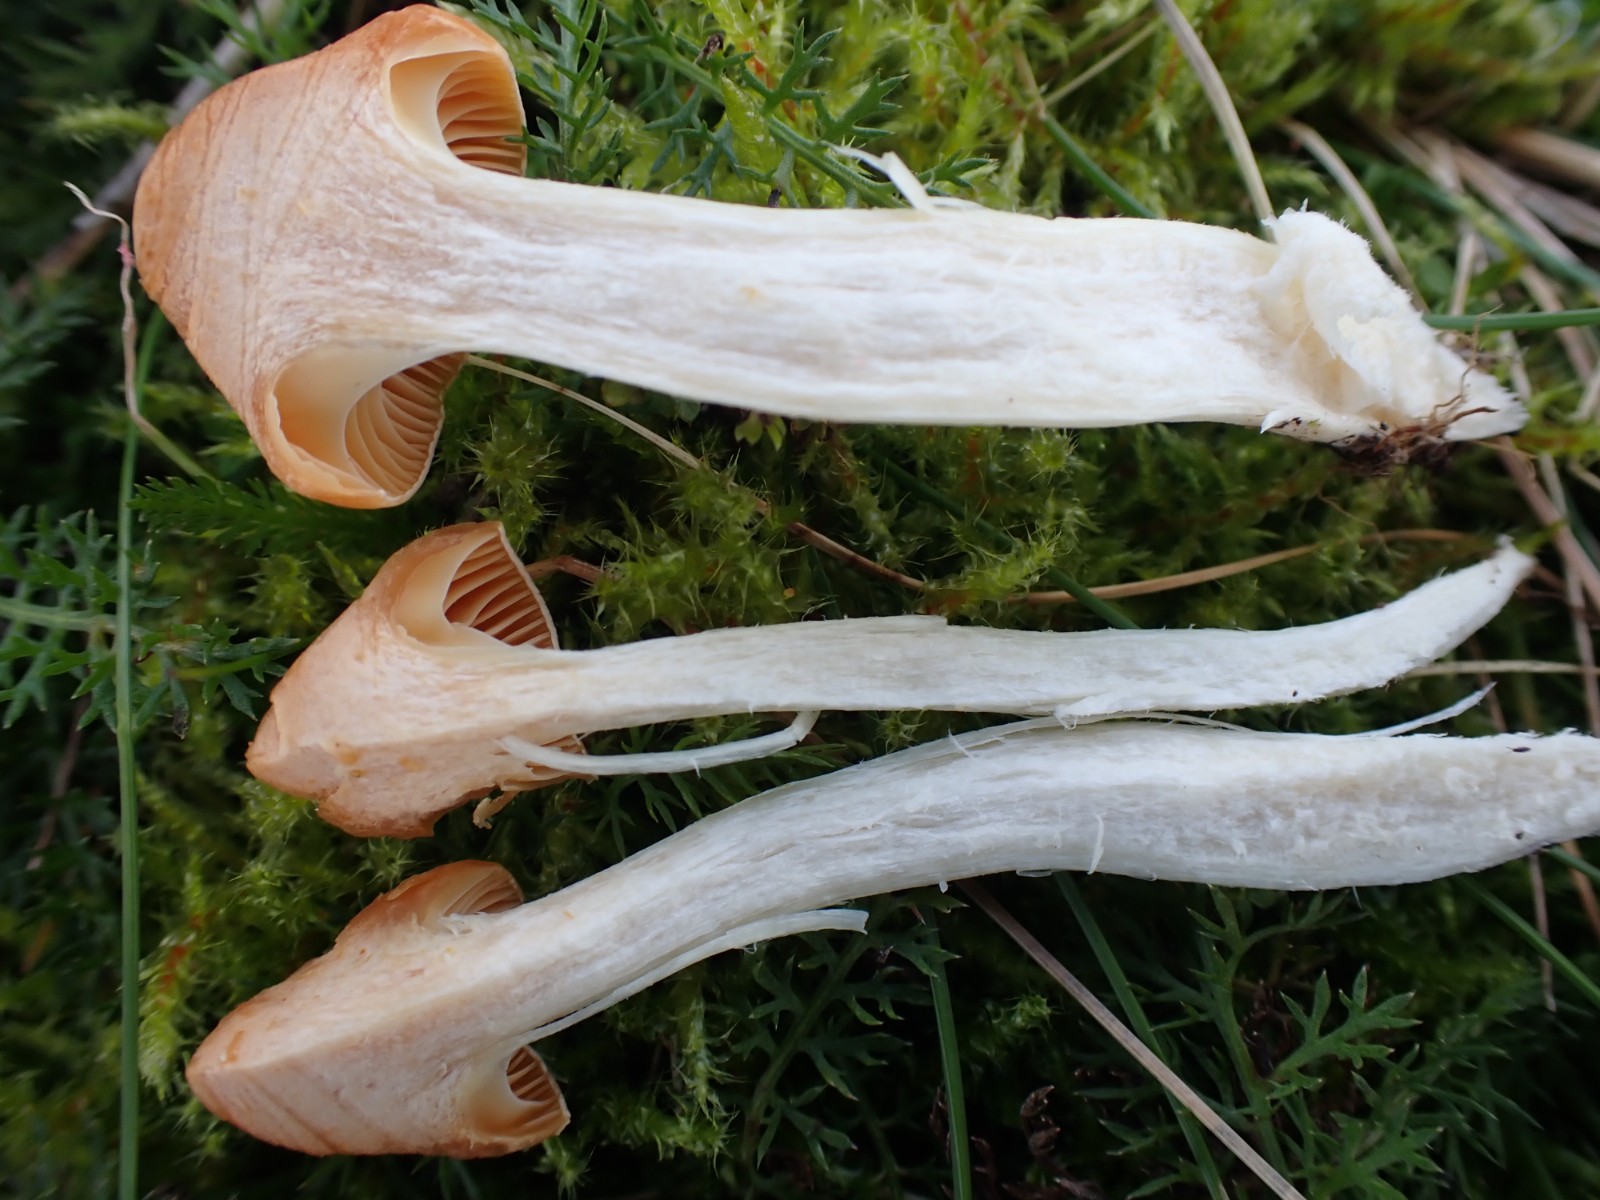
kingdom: Fungi
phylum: Basidiomycota
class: Agaricomycetes
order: Agaricales
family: Hygrophoraceae
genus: Cuphophyllus
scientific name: Cuphophyllus pratensis
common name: eng-vokshat
